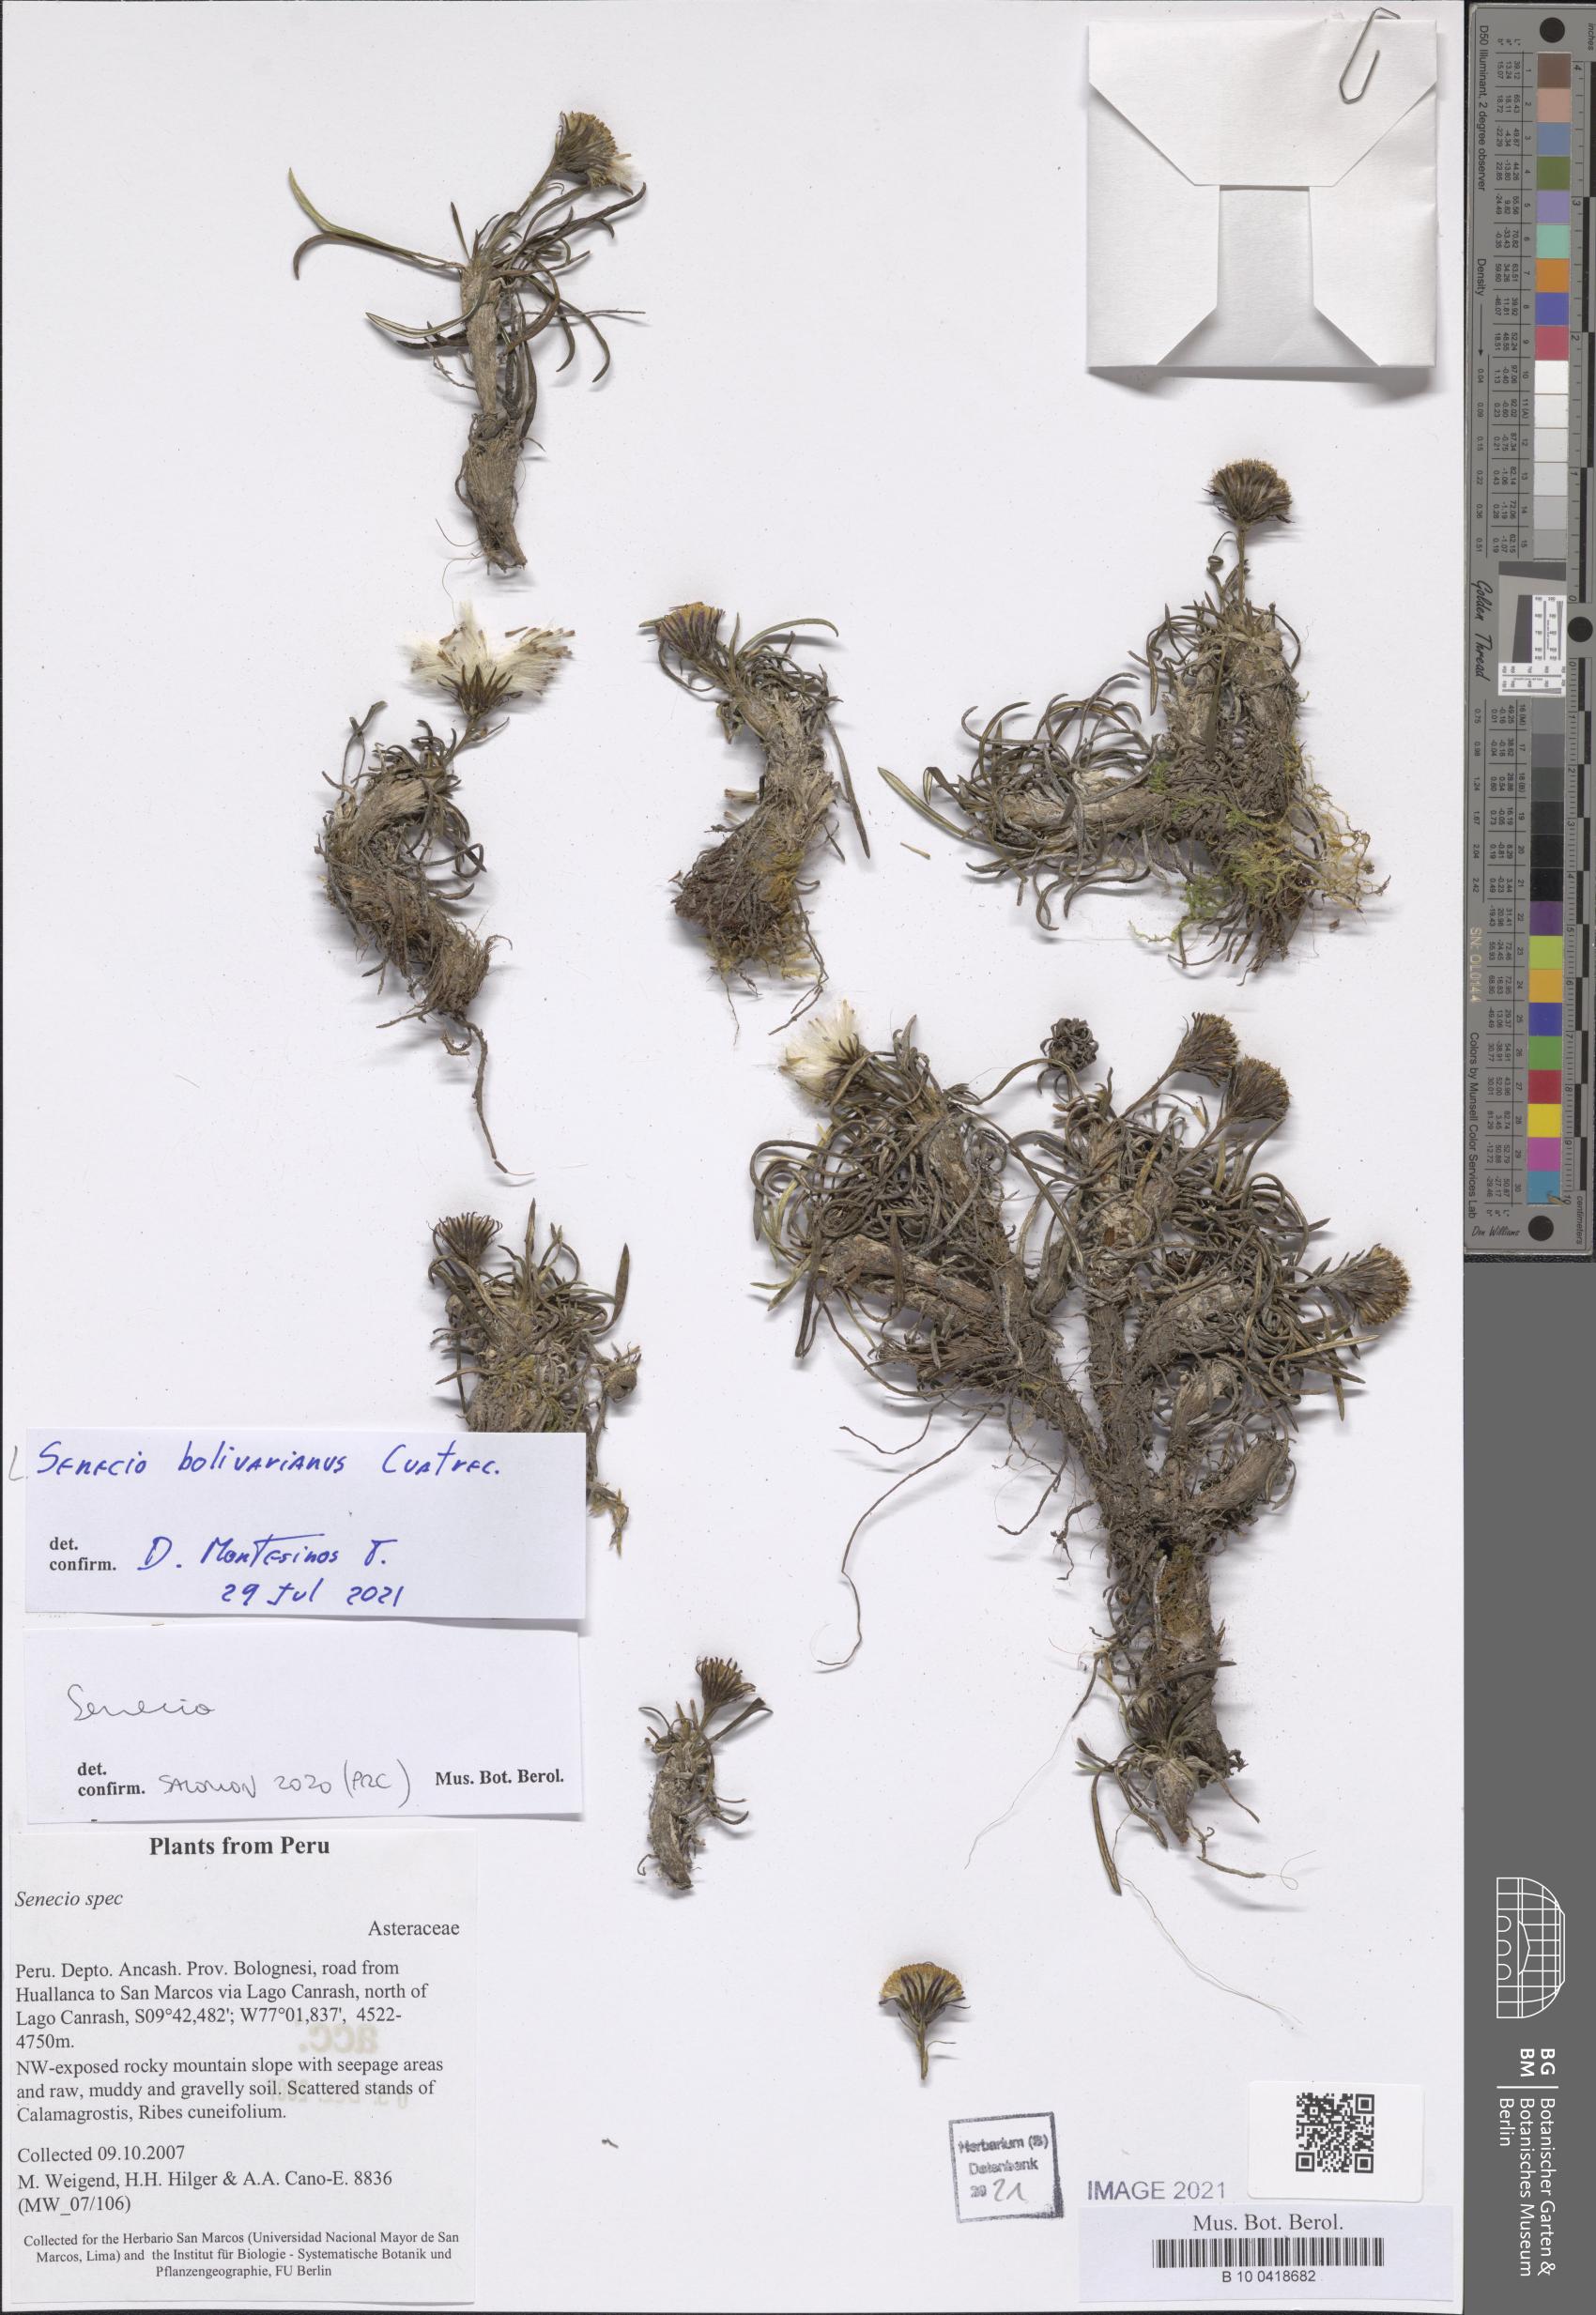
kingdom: Plantae
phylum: Tracheophyta
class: Magnoliopsida
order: Asterales
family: Asteraceae
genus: Senecio
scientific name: Senecio bolivarianus
